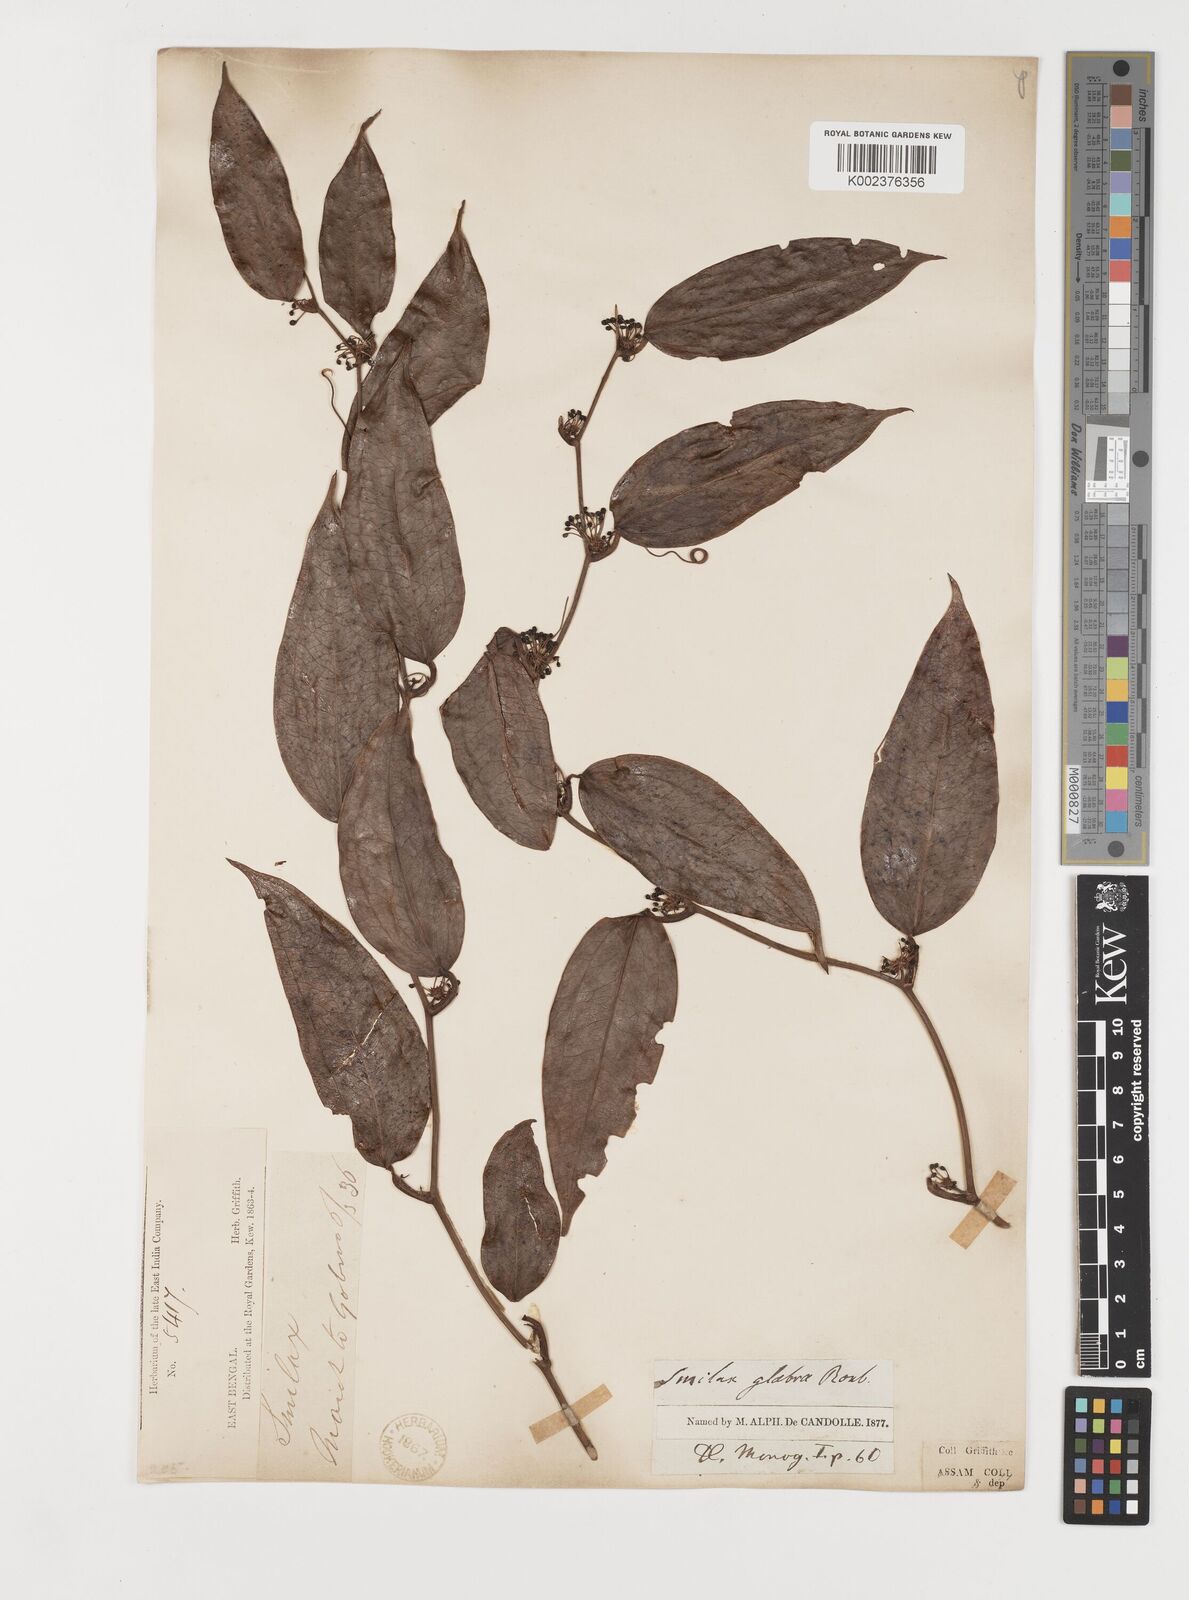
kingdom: Plantae
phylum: Tracheophyta
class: Liliopsida
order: Liliales
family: Smilacaceae
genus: Smilax
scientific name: Smilax glabra
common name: Chinese smilax
